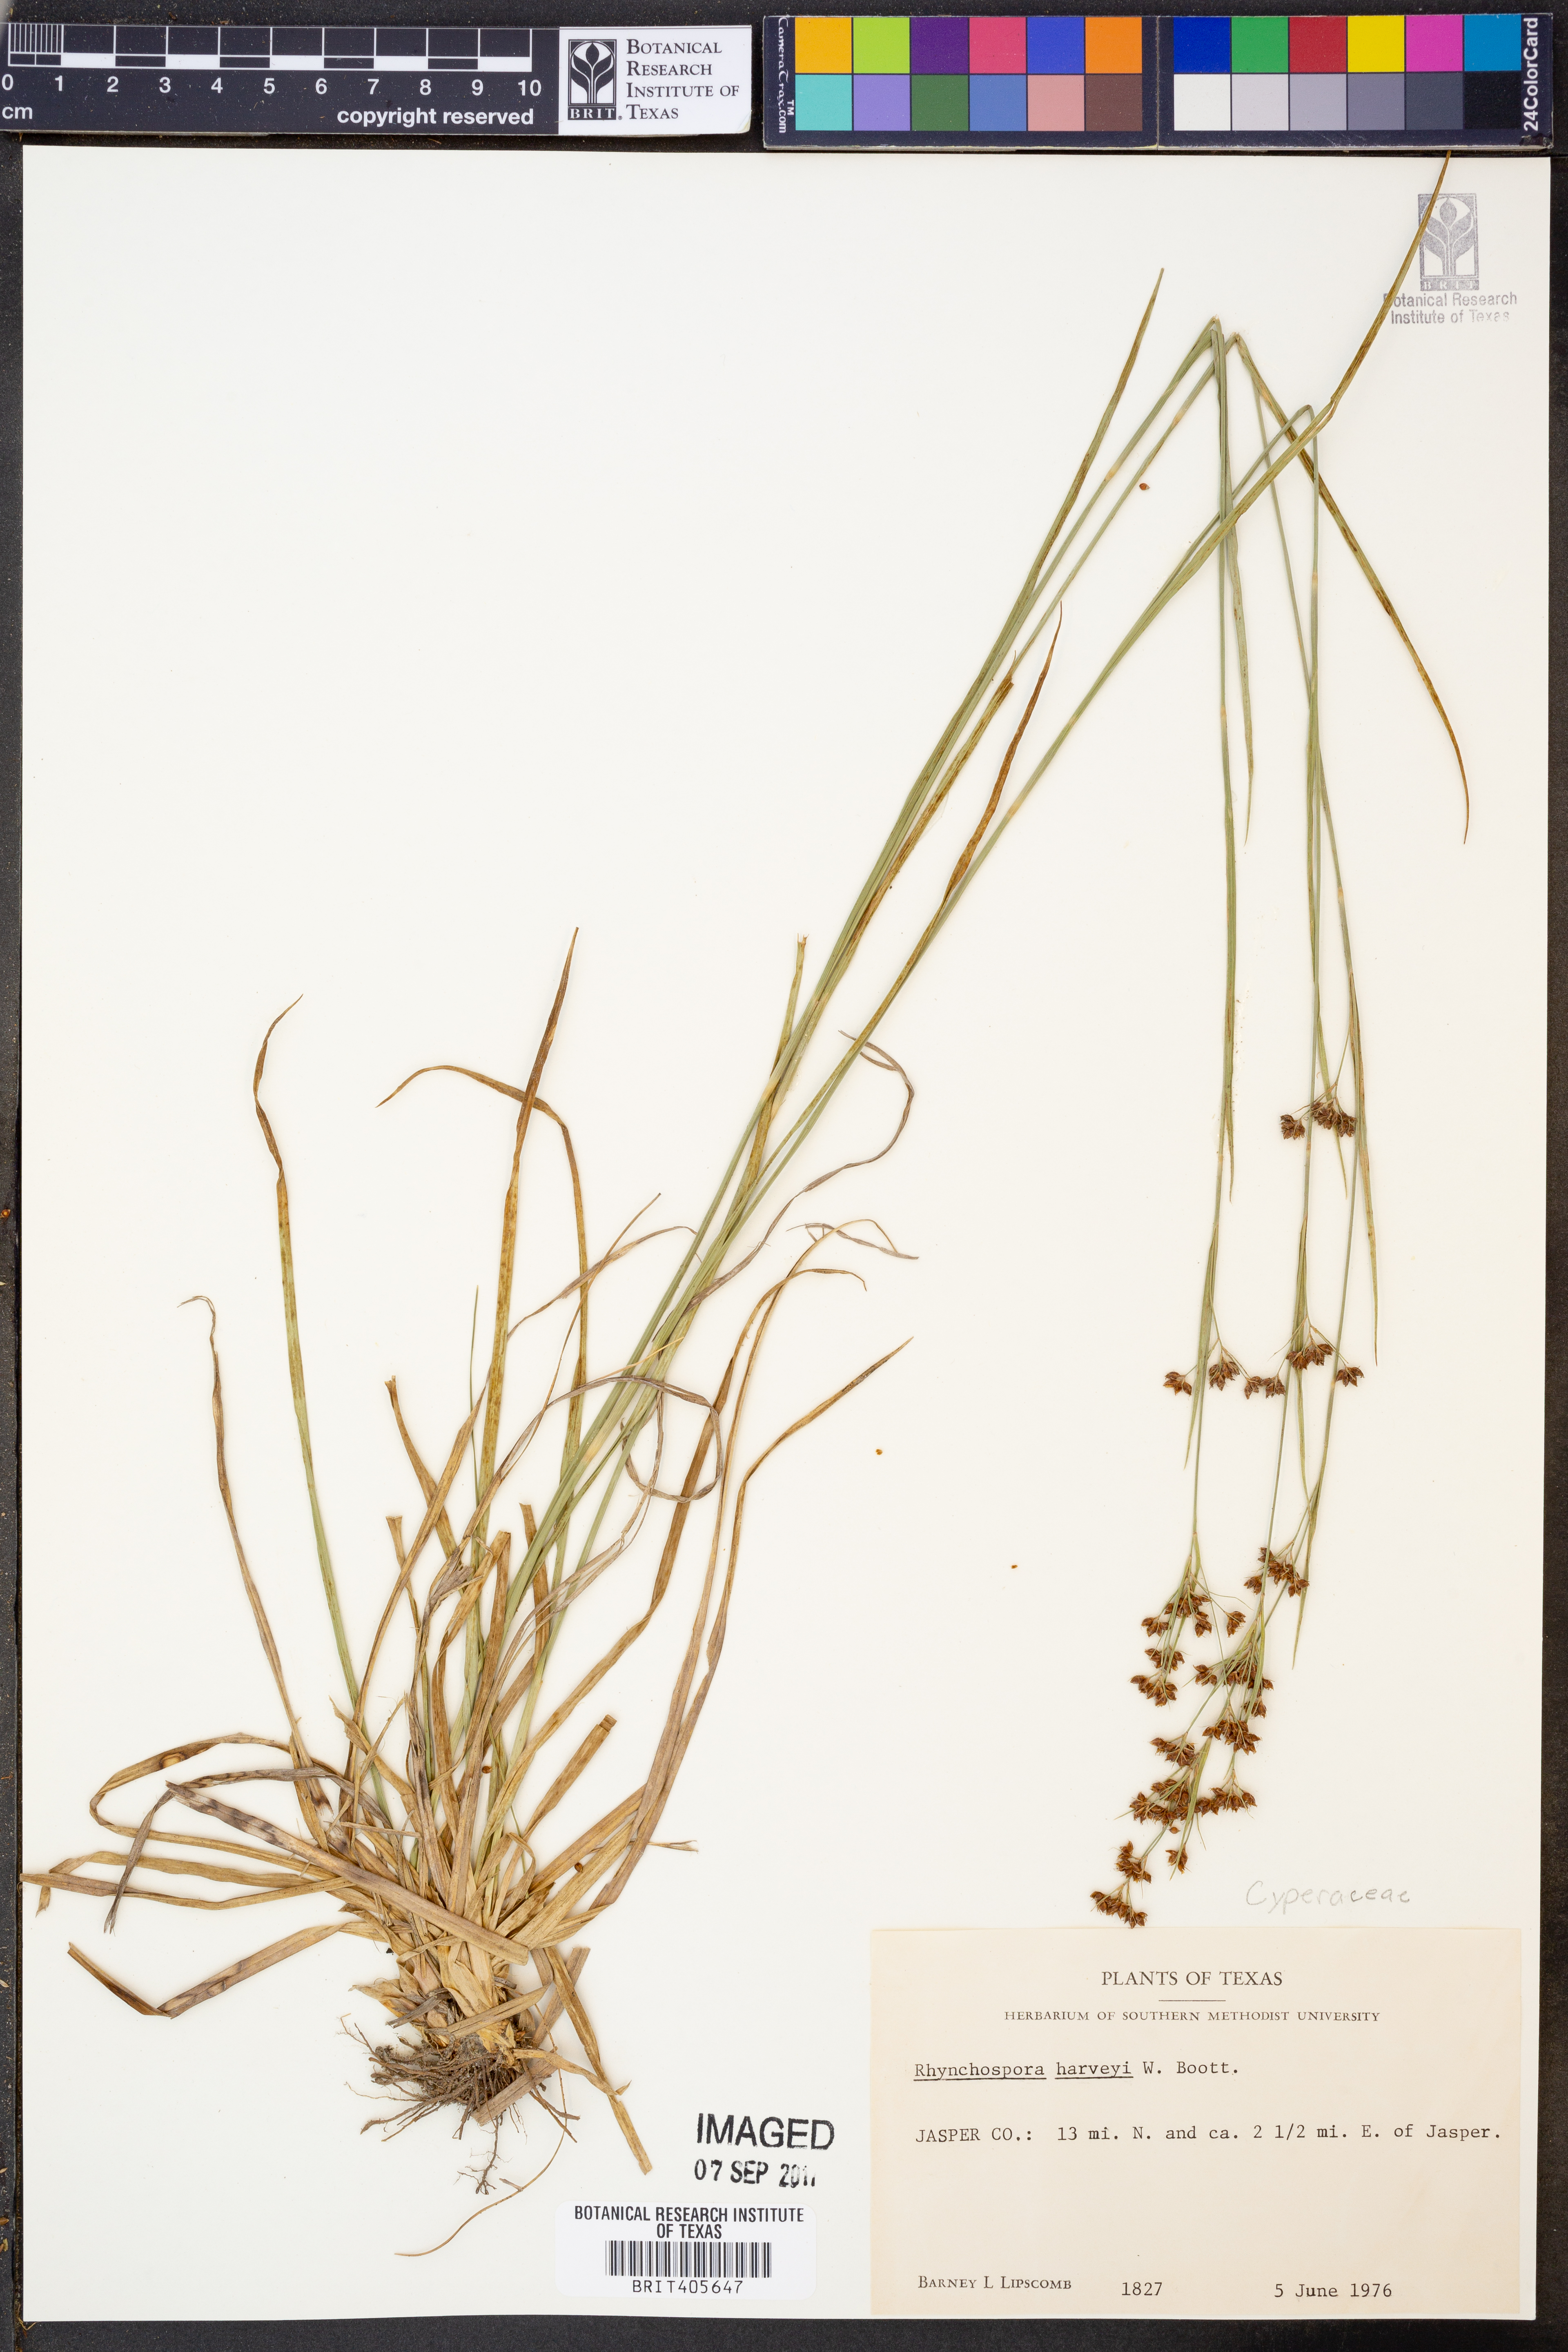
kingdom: Plantae
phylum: Tracheophyta
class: Liliopsida
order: Poales
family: Cyperaceae
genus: Rhynchospora
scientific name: Rhynchospora harveyi
